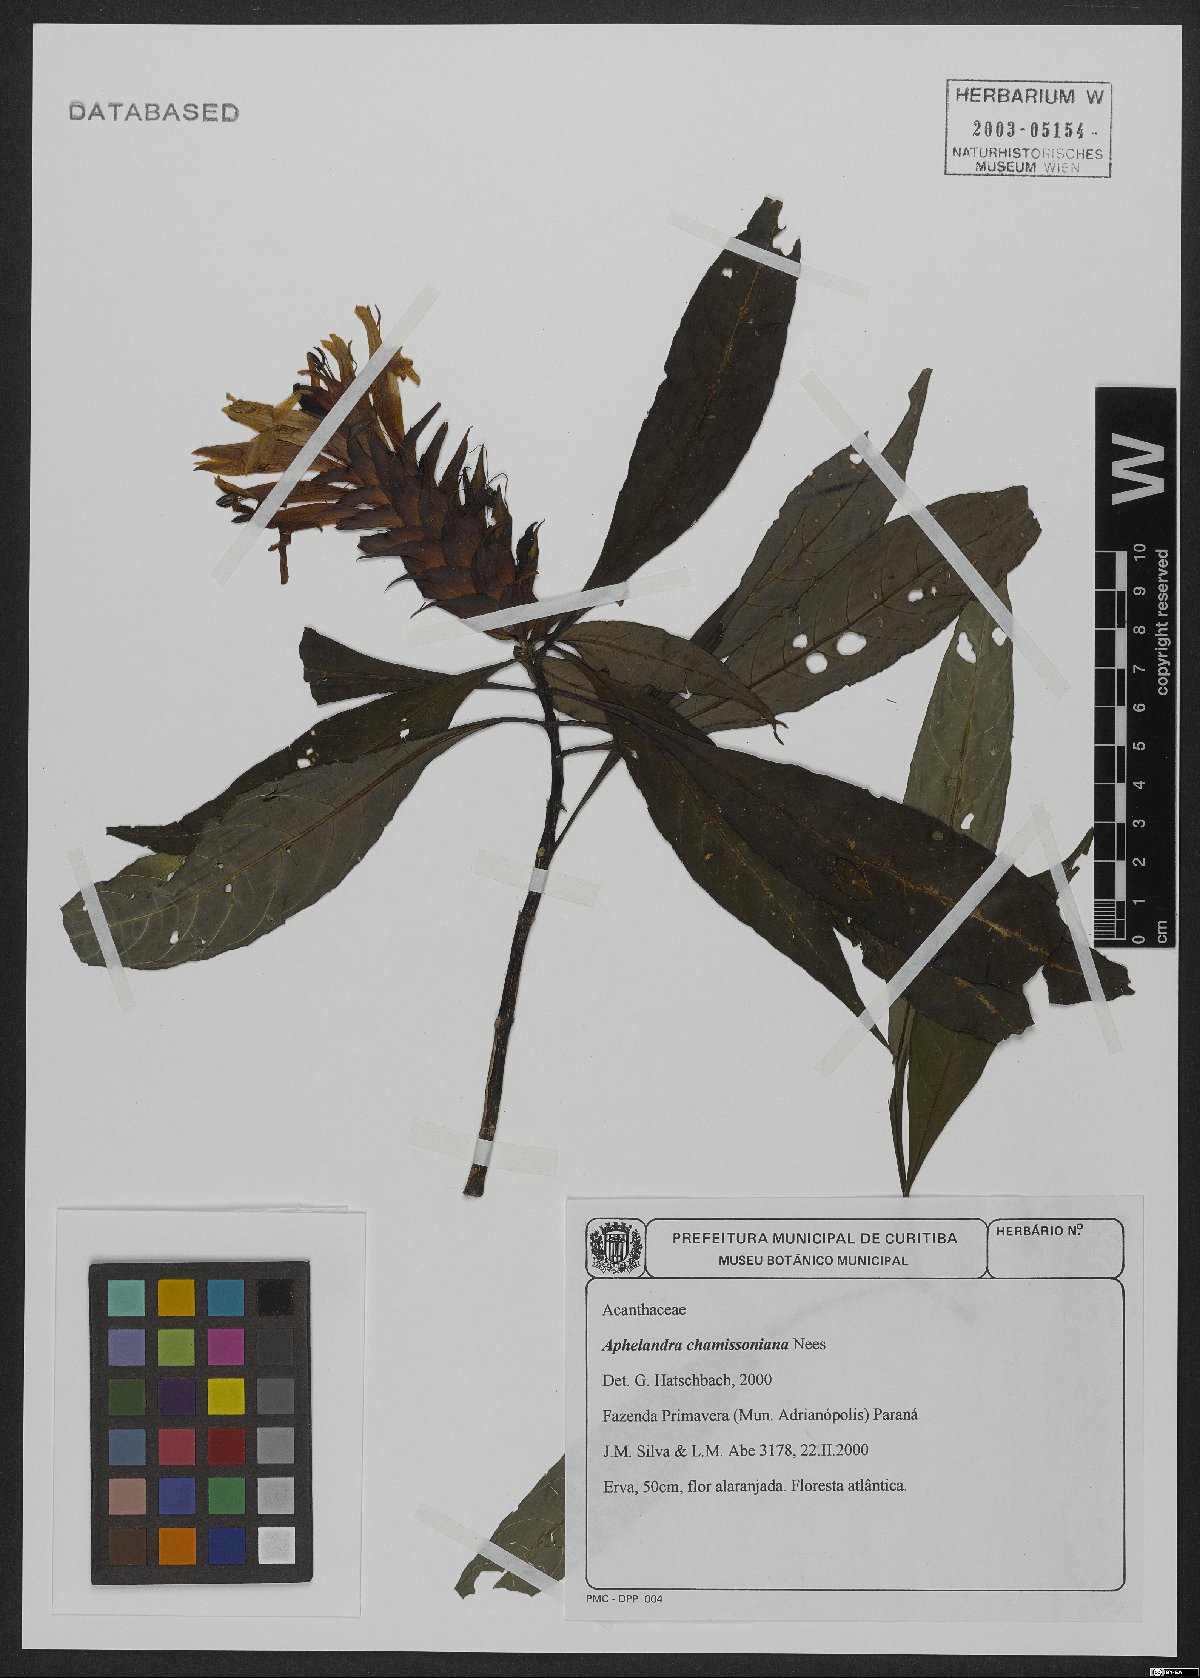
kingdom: Plantae
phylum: Tracheophyta
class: Magnoliopsida
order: Lamiales
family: Acanthaceae
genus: Aphelandra
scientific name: Aphelandra chamissoniana
